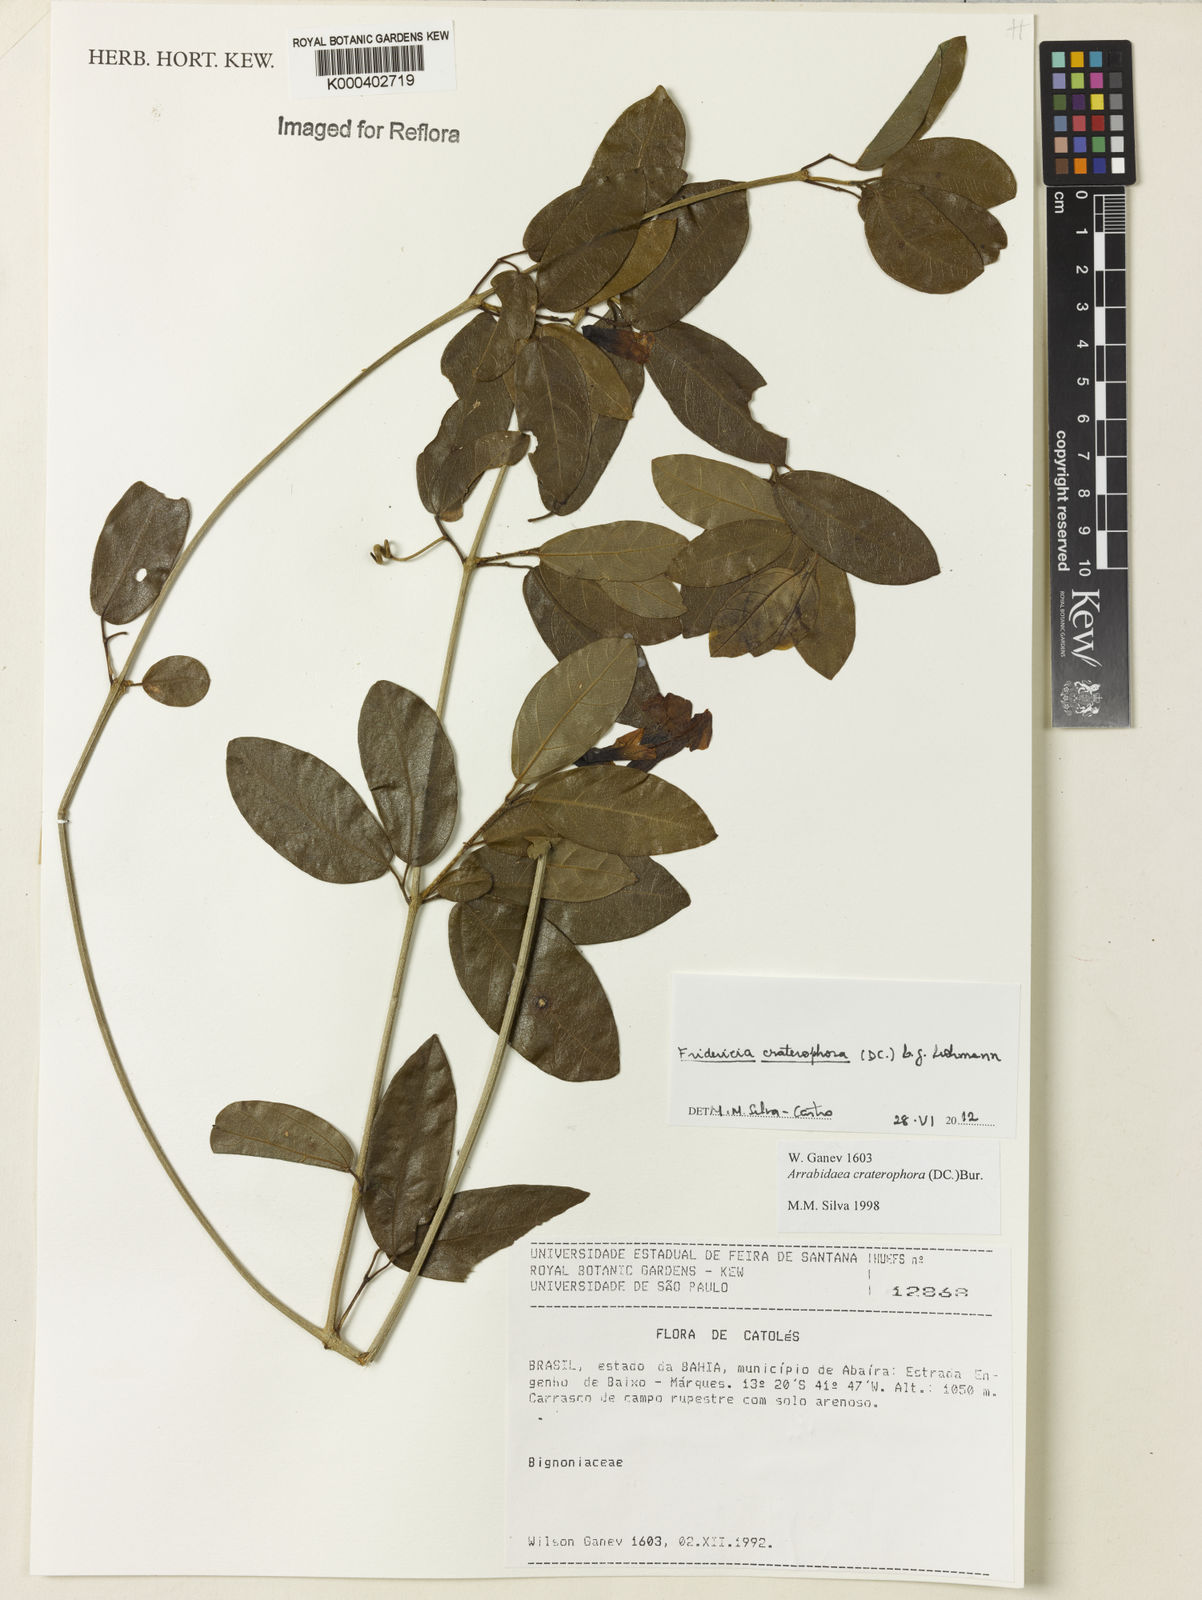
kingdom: Plantae
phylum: Tracheophyta
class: Magnoliopsida
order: Lamiales
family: Bignoniaceae
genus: Fridericia
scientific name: Fridericia craterophora
